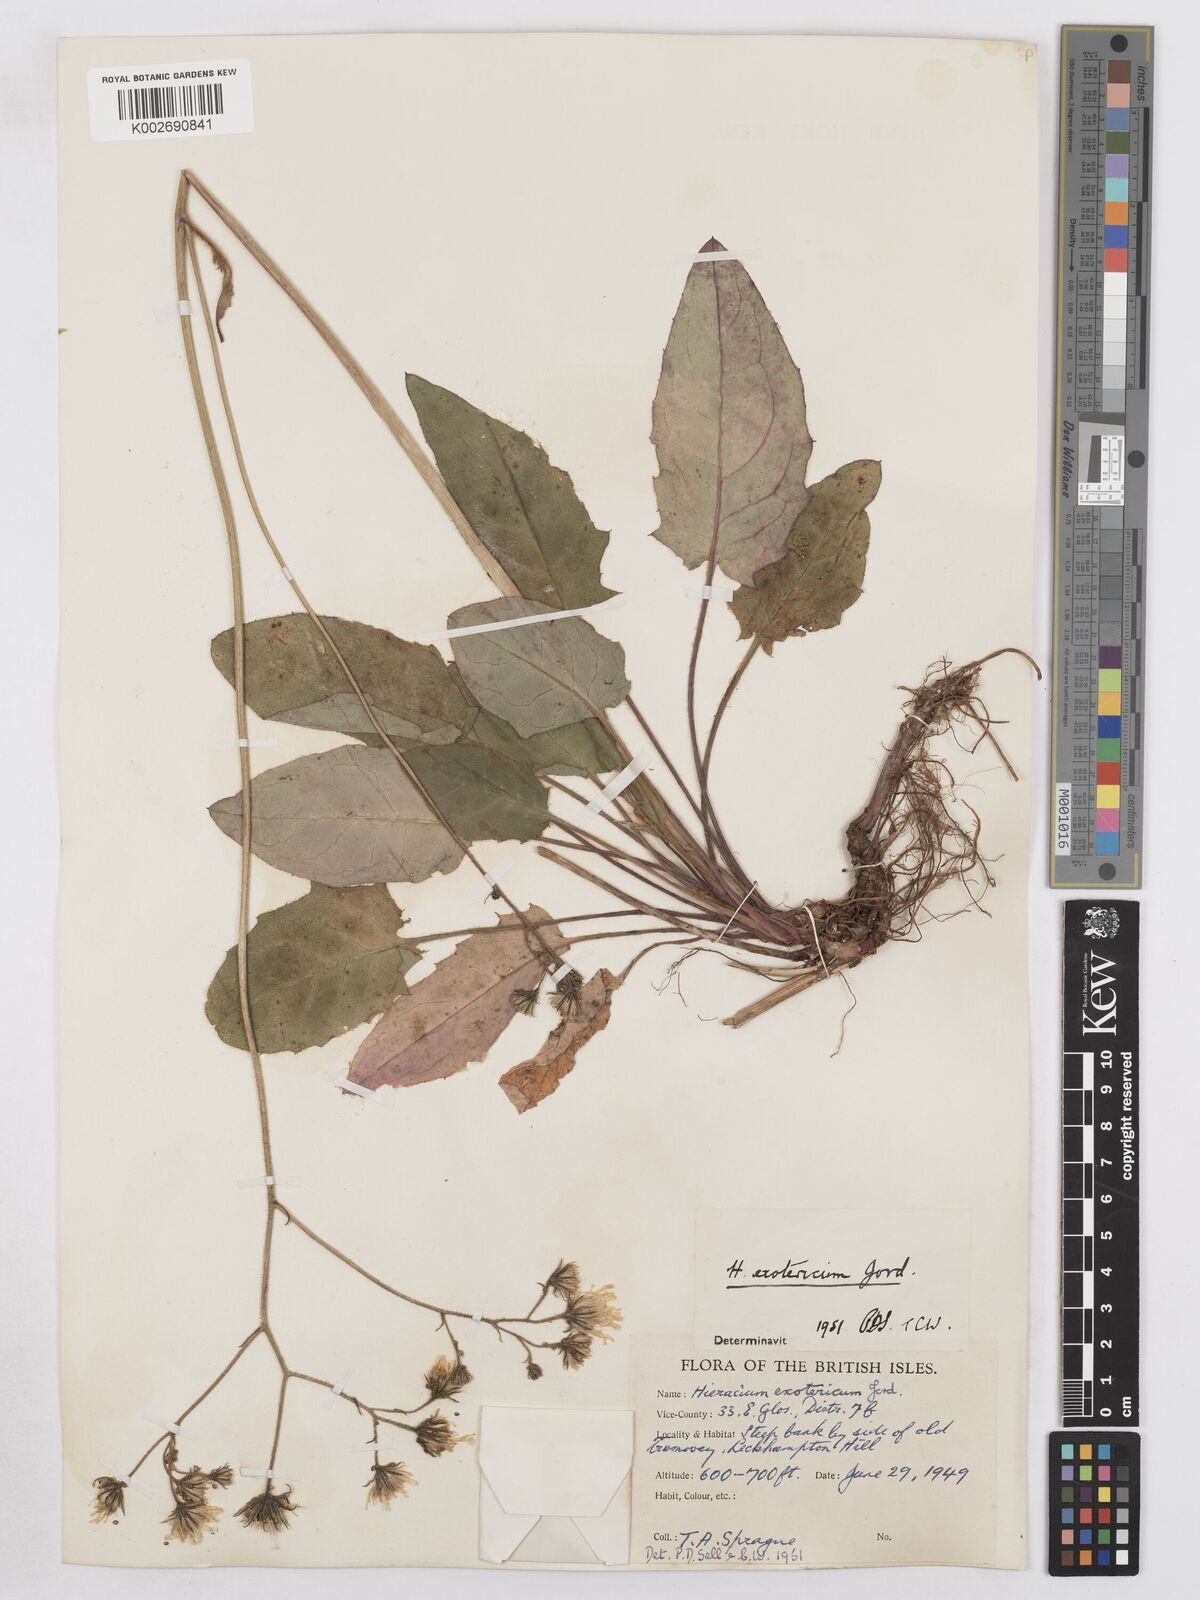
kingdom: Plantae
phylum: Tracheophyta
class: Magnoliopsida
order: Asterales
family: Asteraceae
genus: Hieracium
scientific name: Hieracium murorum
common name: Wall hawkweed
